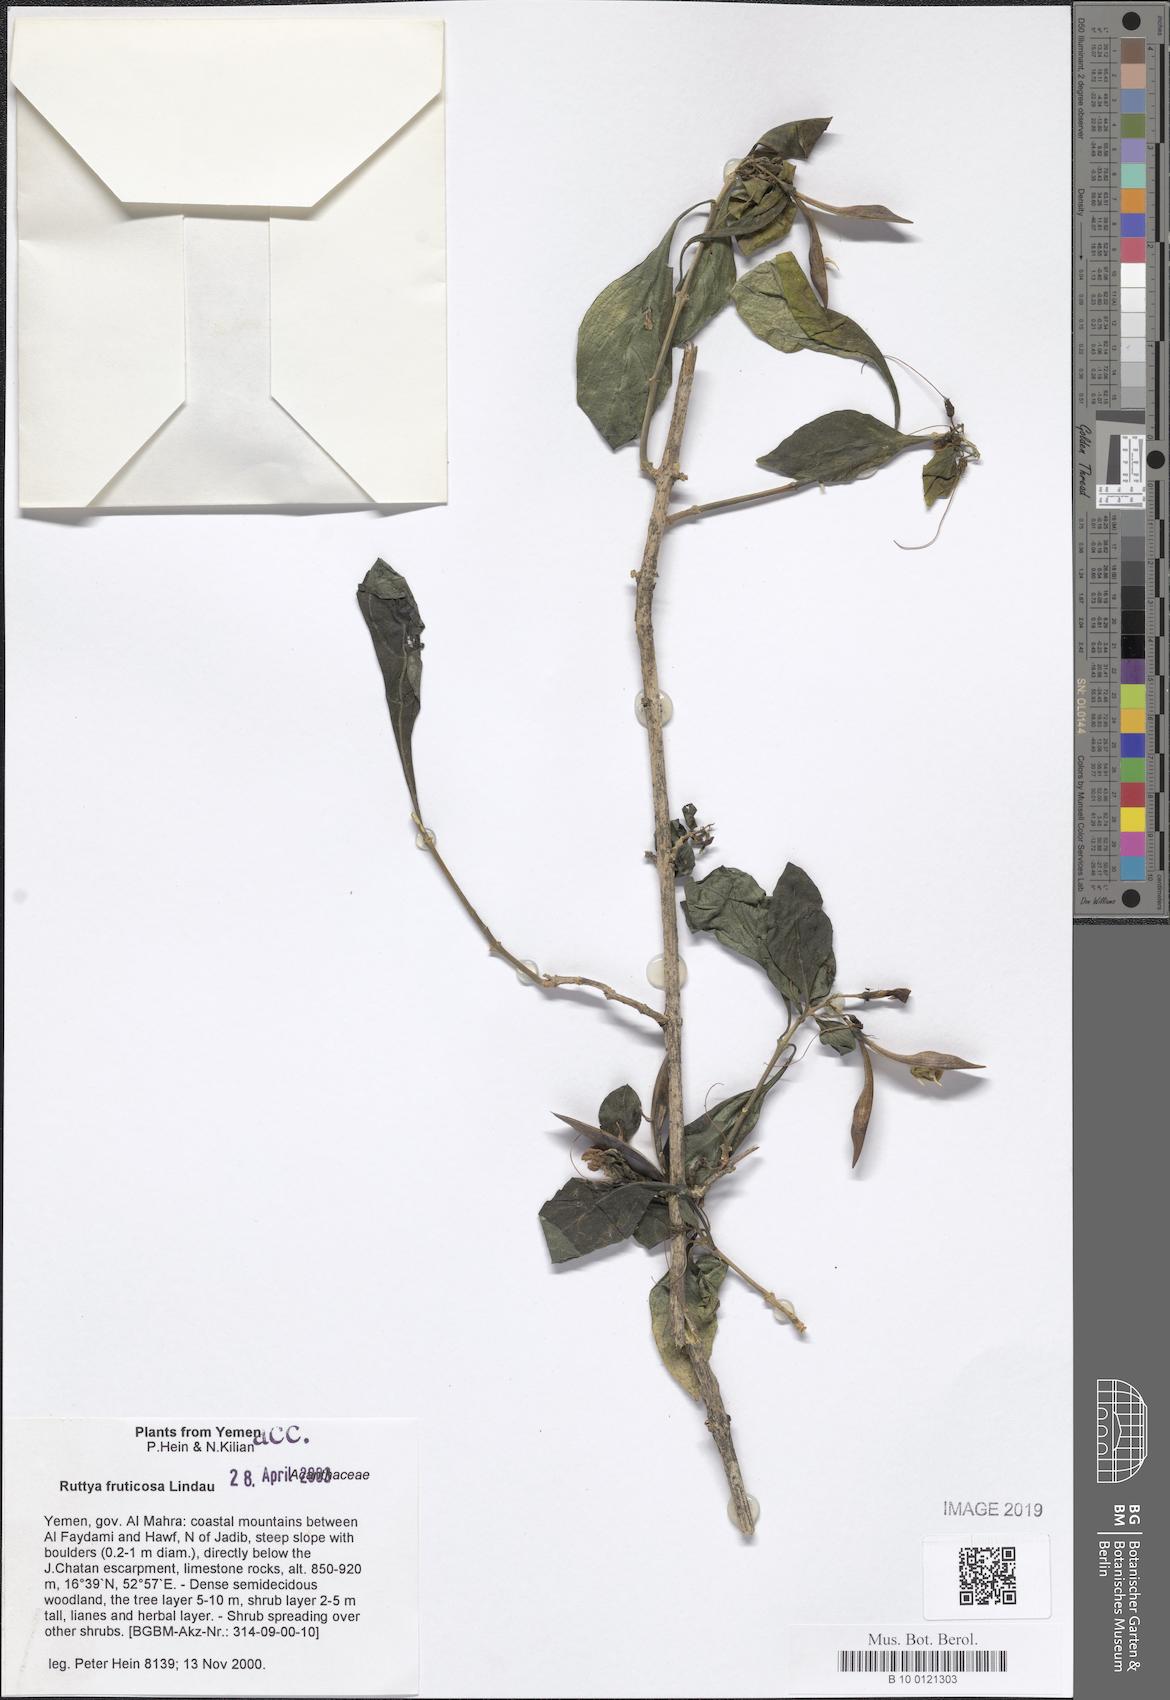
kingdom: Plantae
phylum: Tracheophyta
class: Magnoliopsida
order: Lamiales
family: Acanthaceae
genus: Ruttya
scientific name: Ruttya fruticosa
